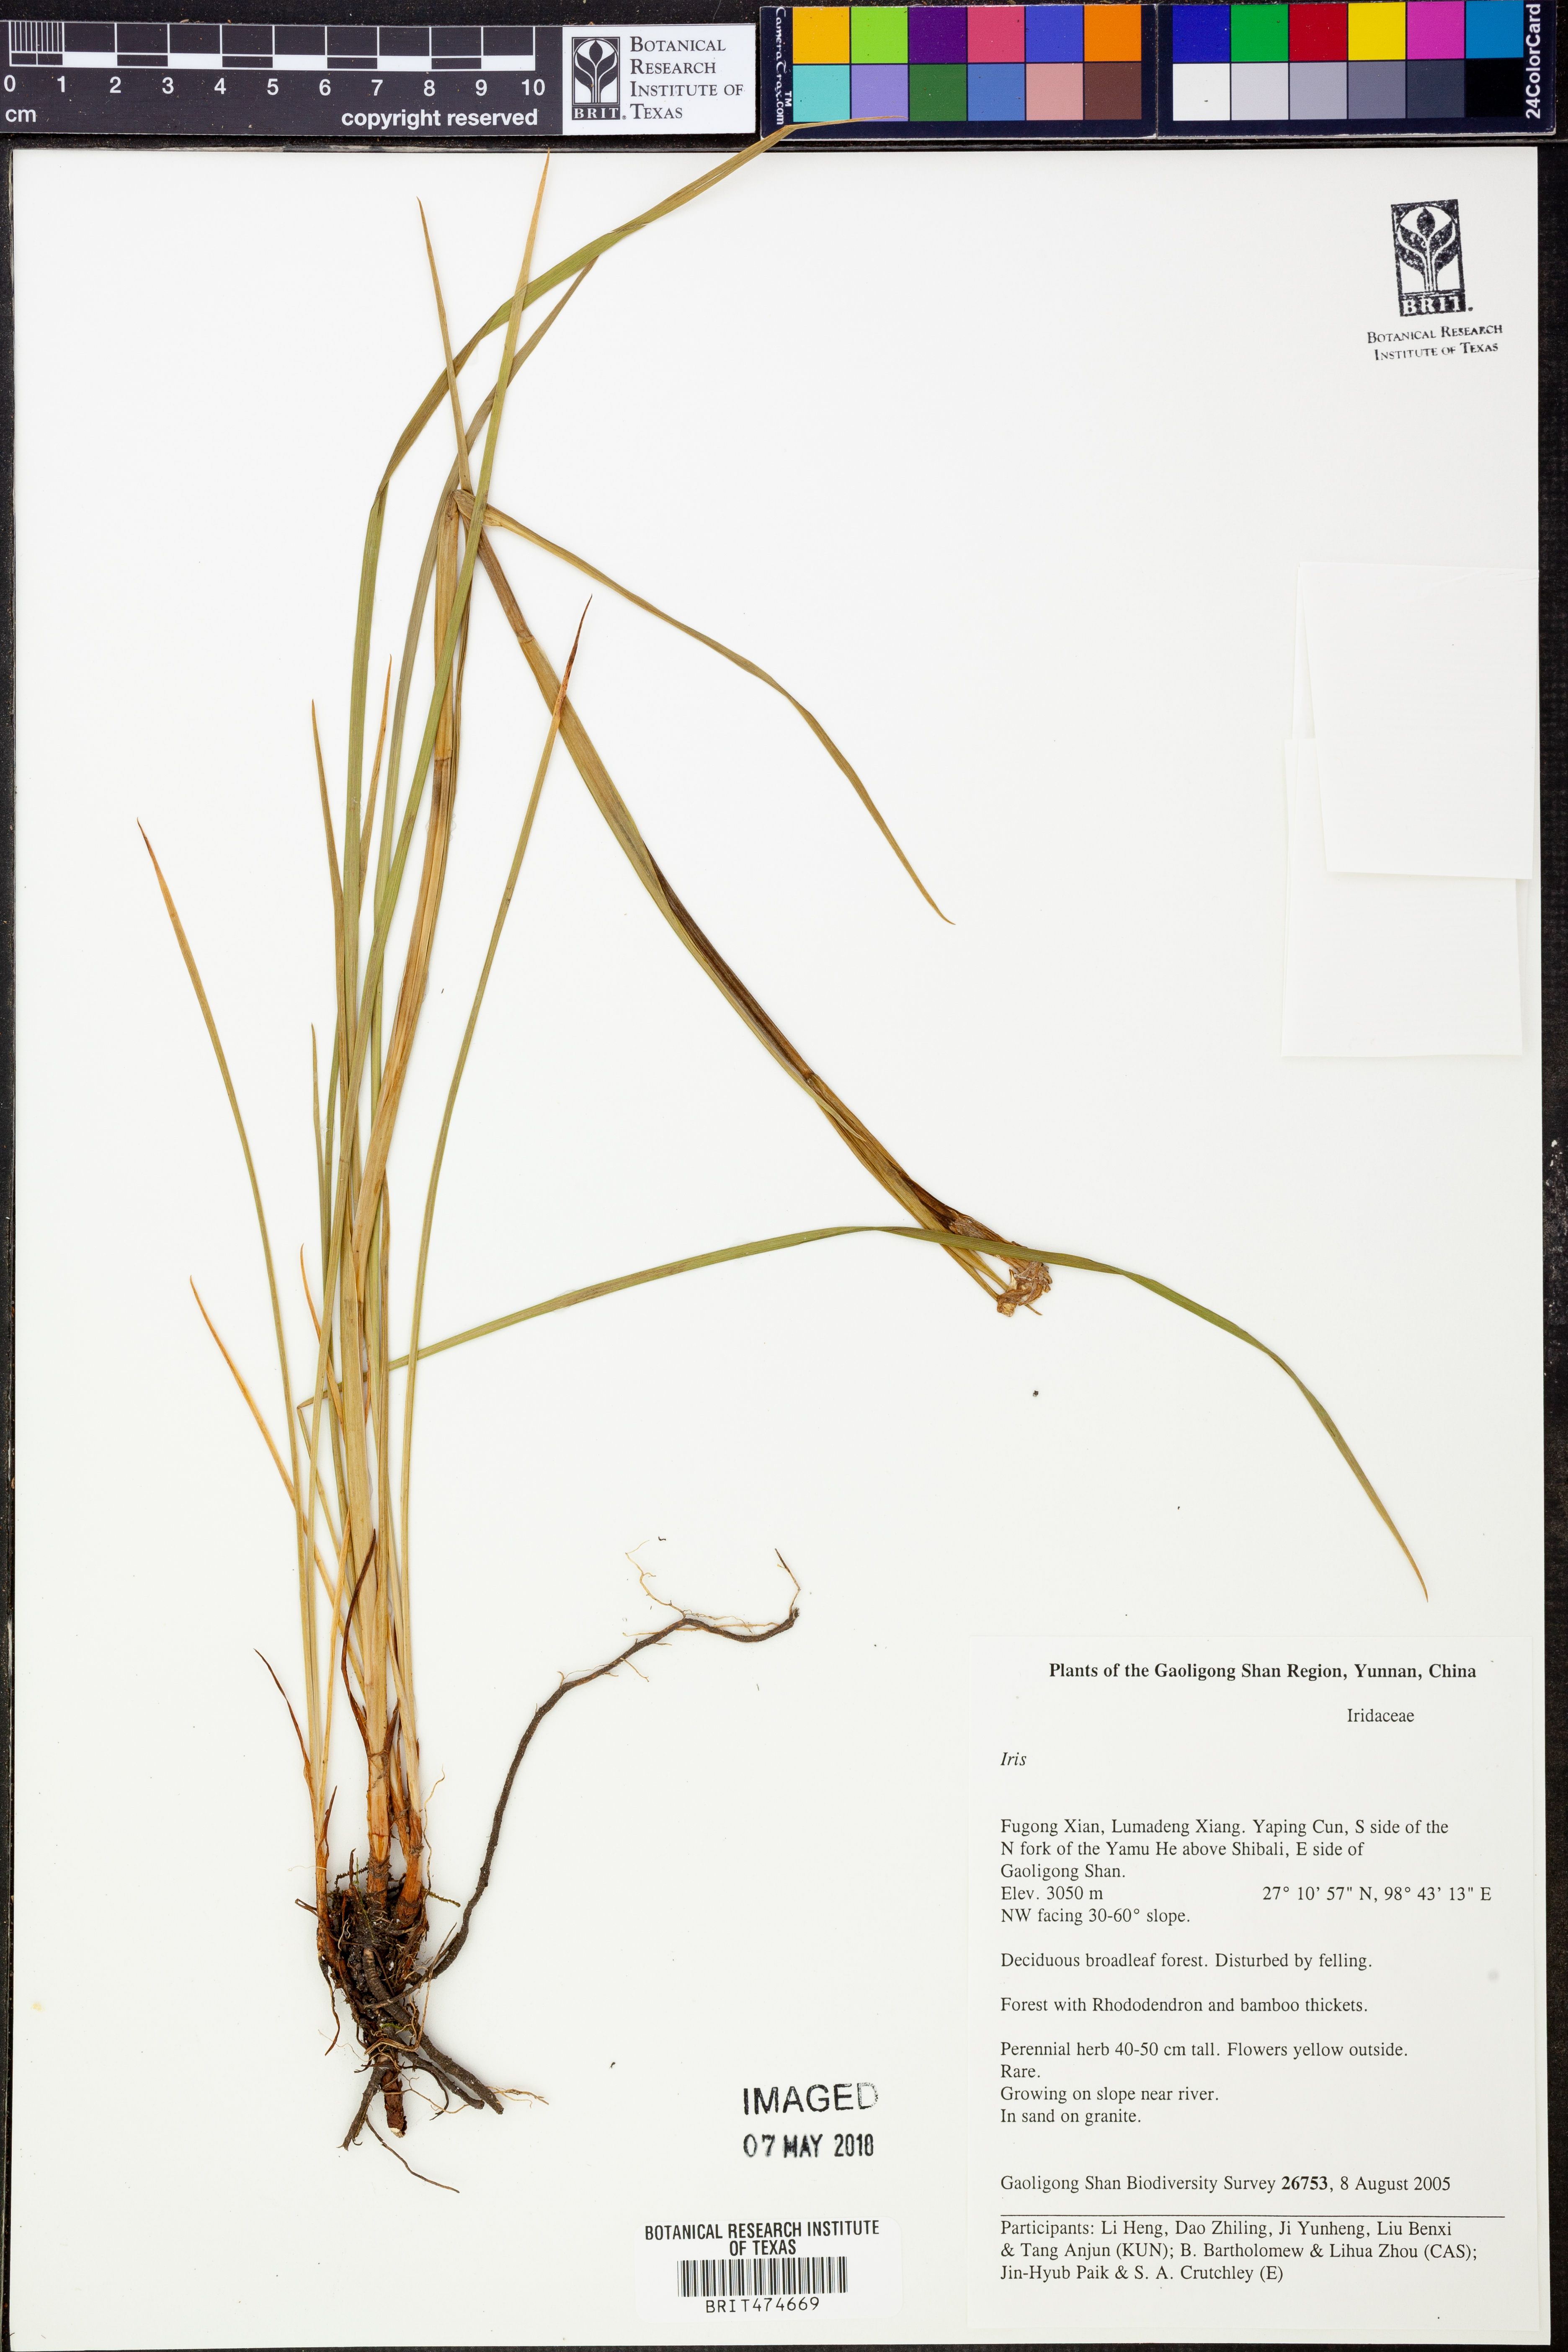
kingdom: Plantae
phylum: Tracheophyta
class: Liliopsida
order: Asparagales
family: Iridaceae
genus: Iris
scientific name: Iris
